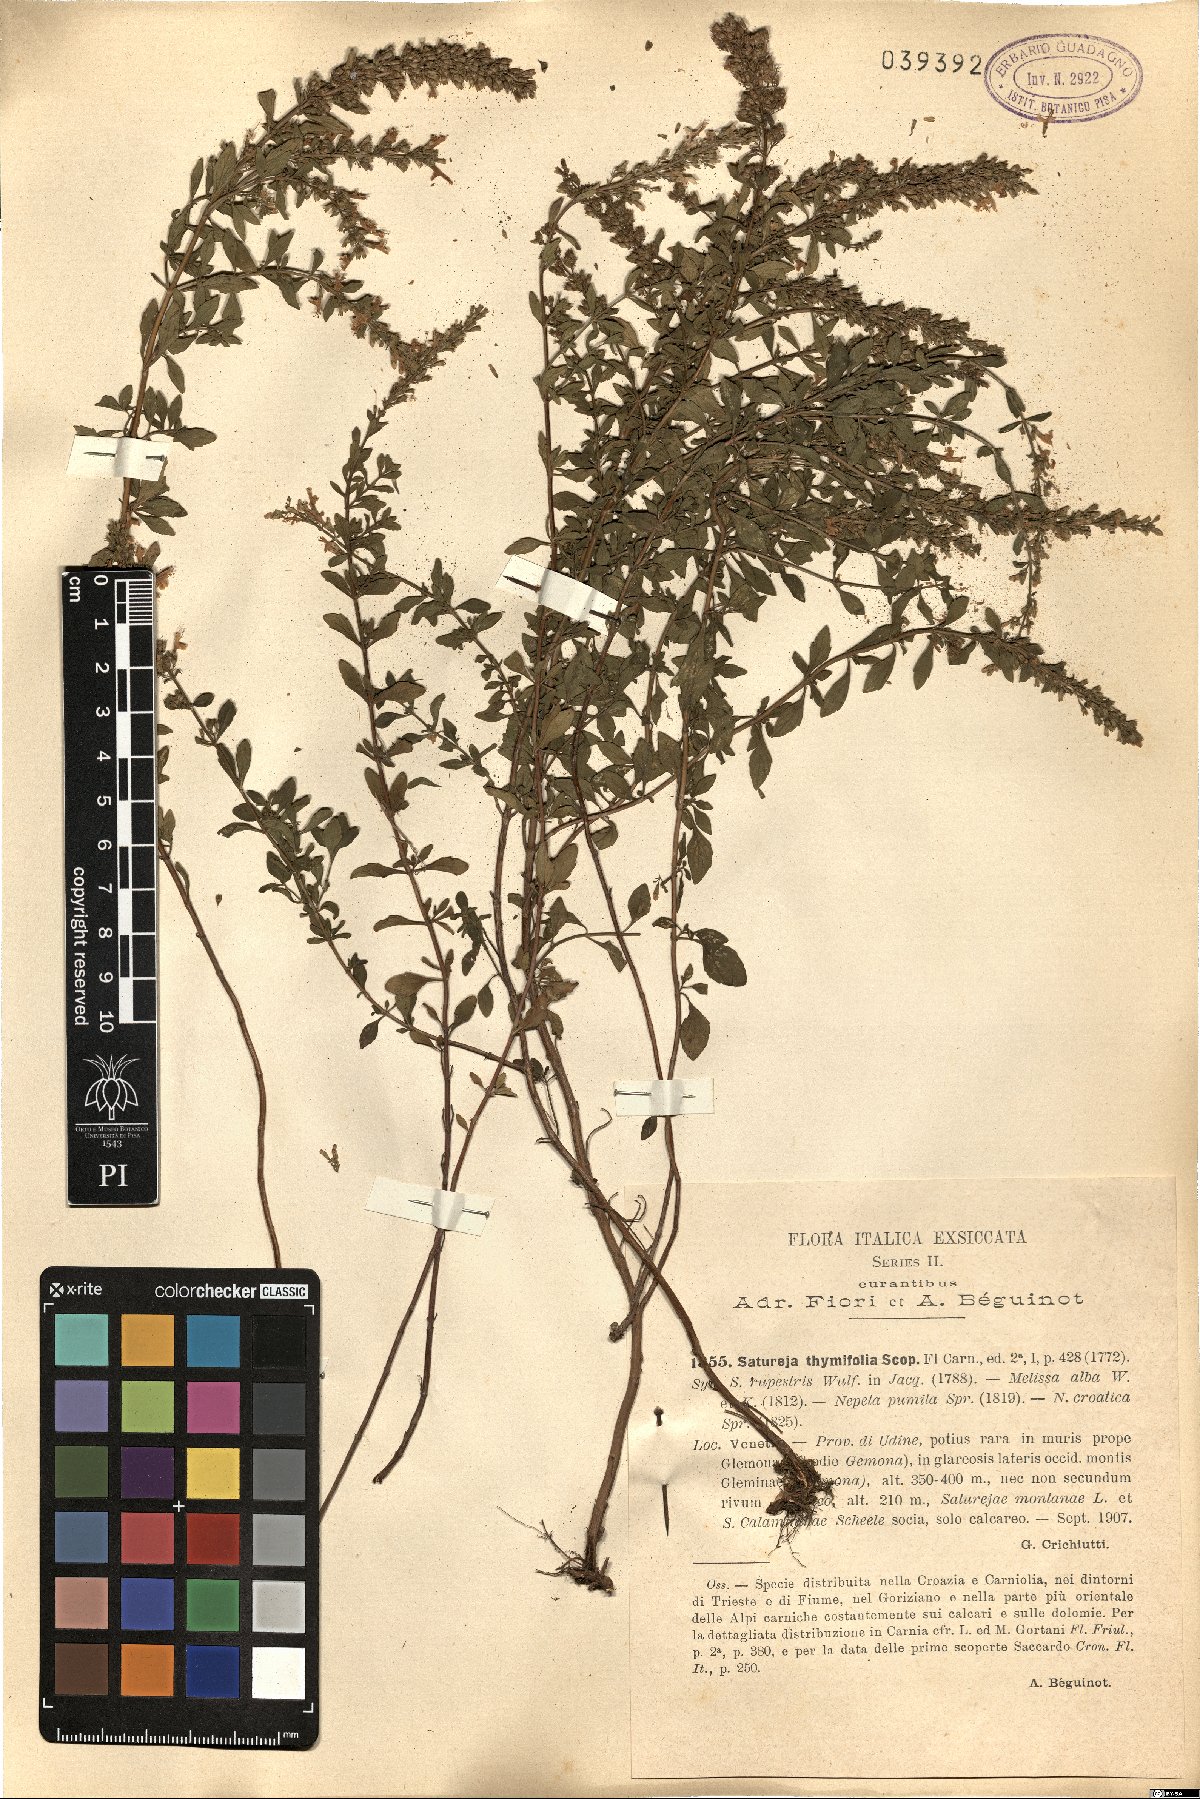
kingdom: Plantae
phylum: Tracheophyta
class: Magnoliopsida
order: Lamiales
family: Lamiaceae
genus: Clinopodium
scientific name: Clinopodium album
